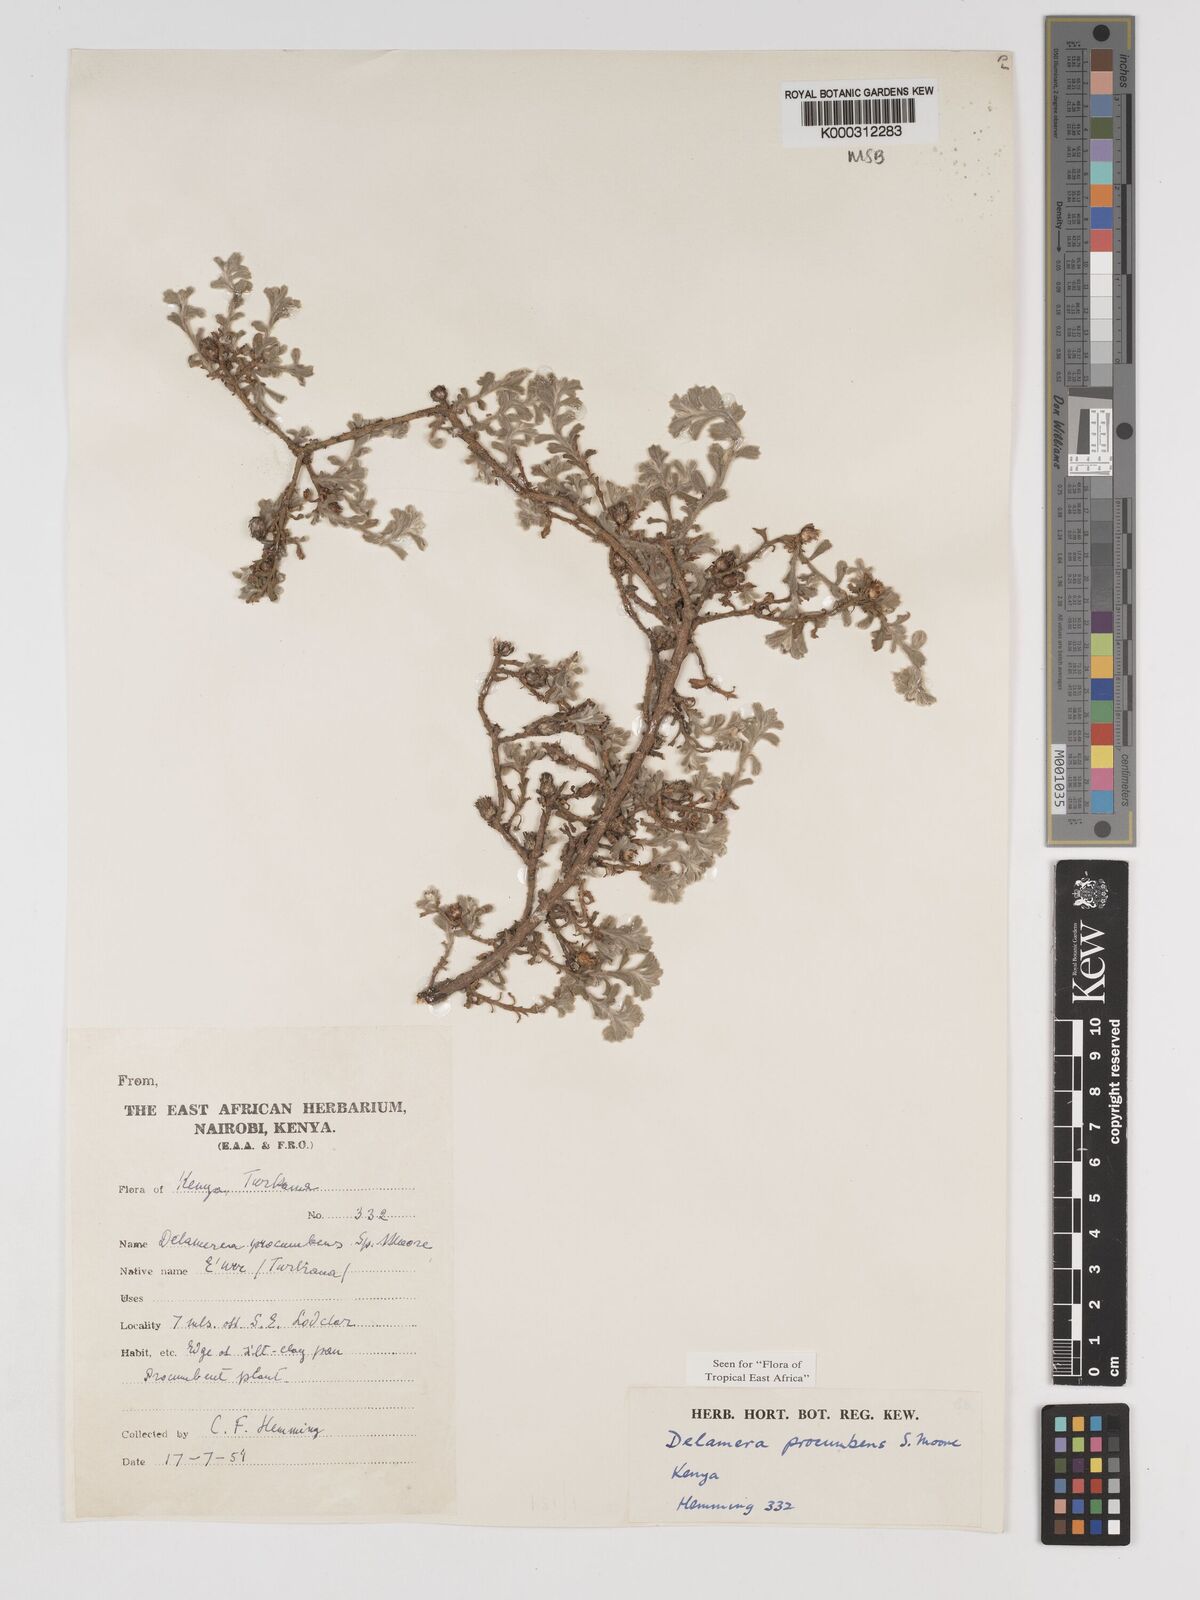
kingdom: Plantae
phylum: Tracheophyta
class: Magnoliopsida
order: Asterales
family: Asteraceae
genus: Delamerea
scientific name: Delamerea procumbens
